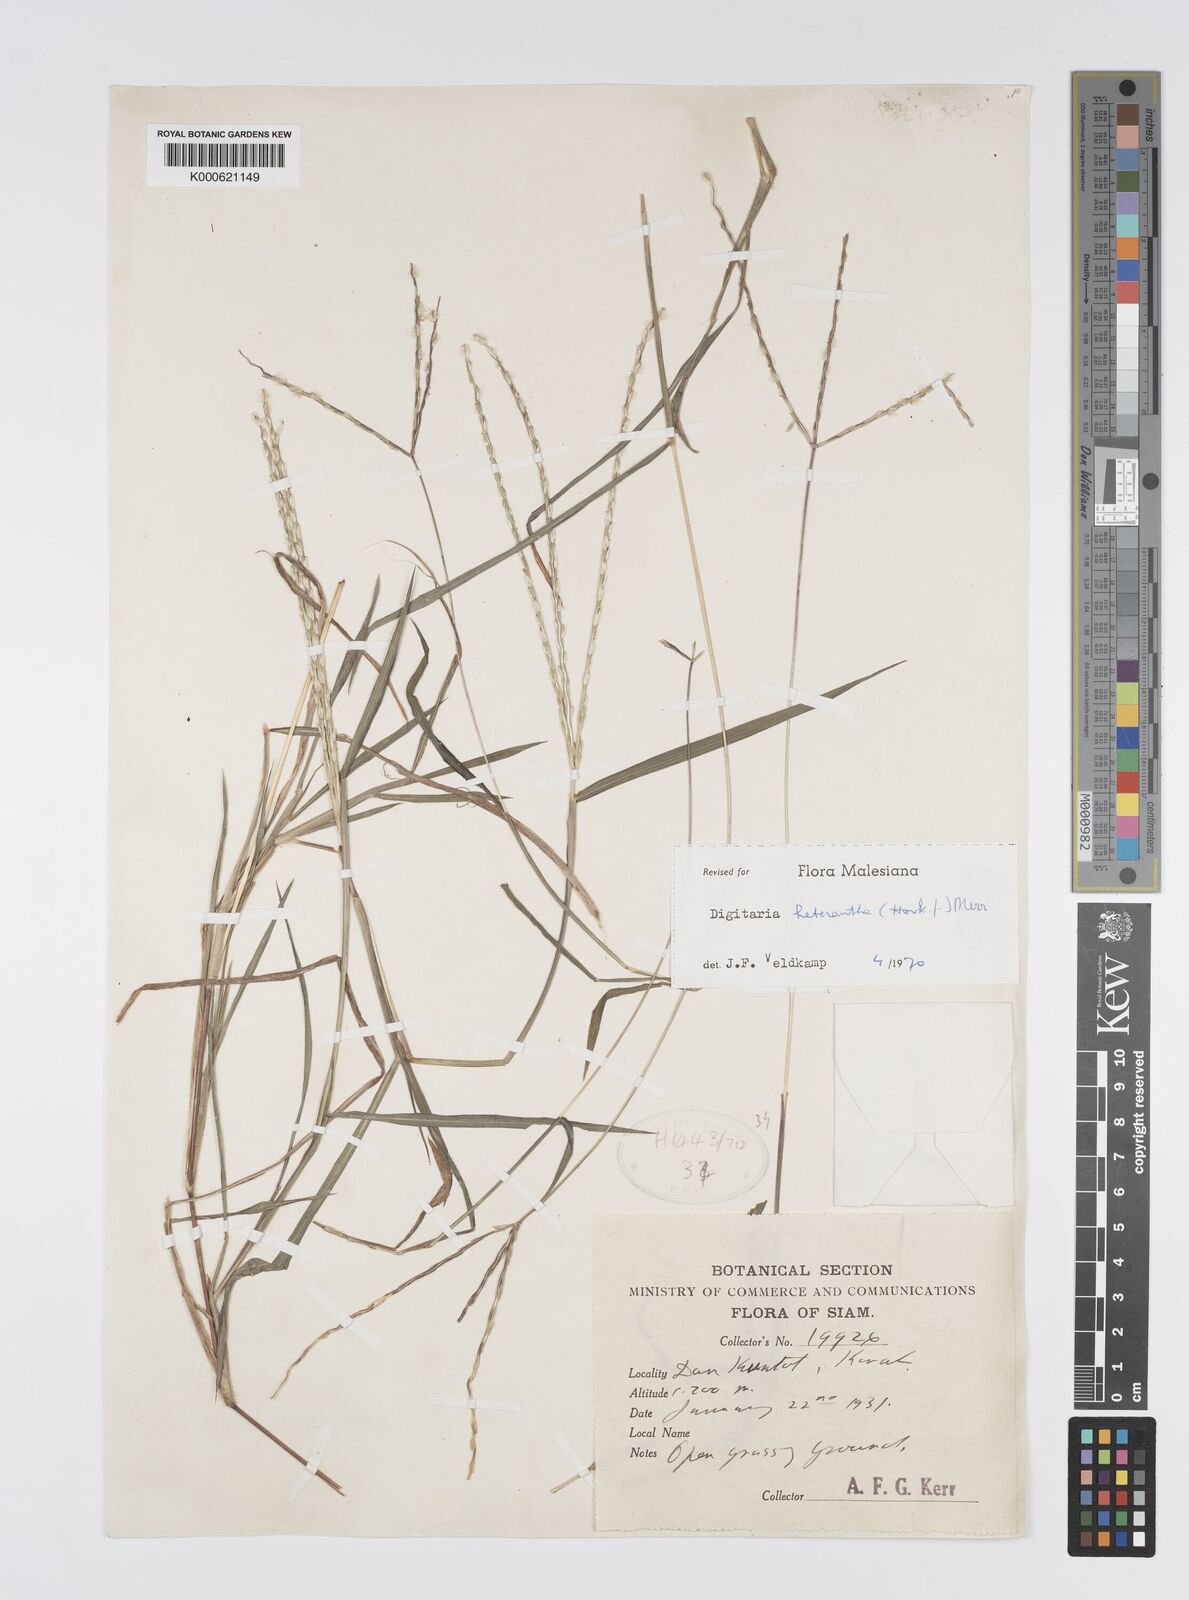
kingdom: Plantae
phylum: Tracheophyta
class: Liliopsida
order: Poales
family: Poaceae
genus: Digitaria
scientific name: Digitaria heterantha
